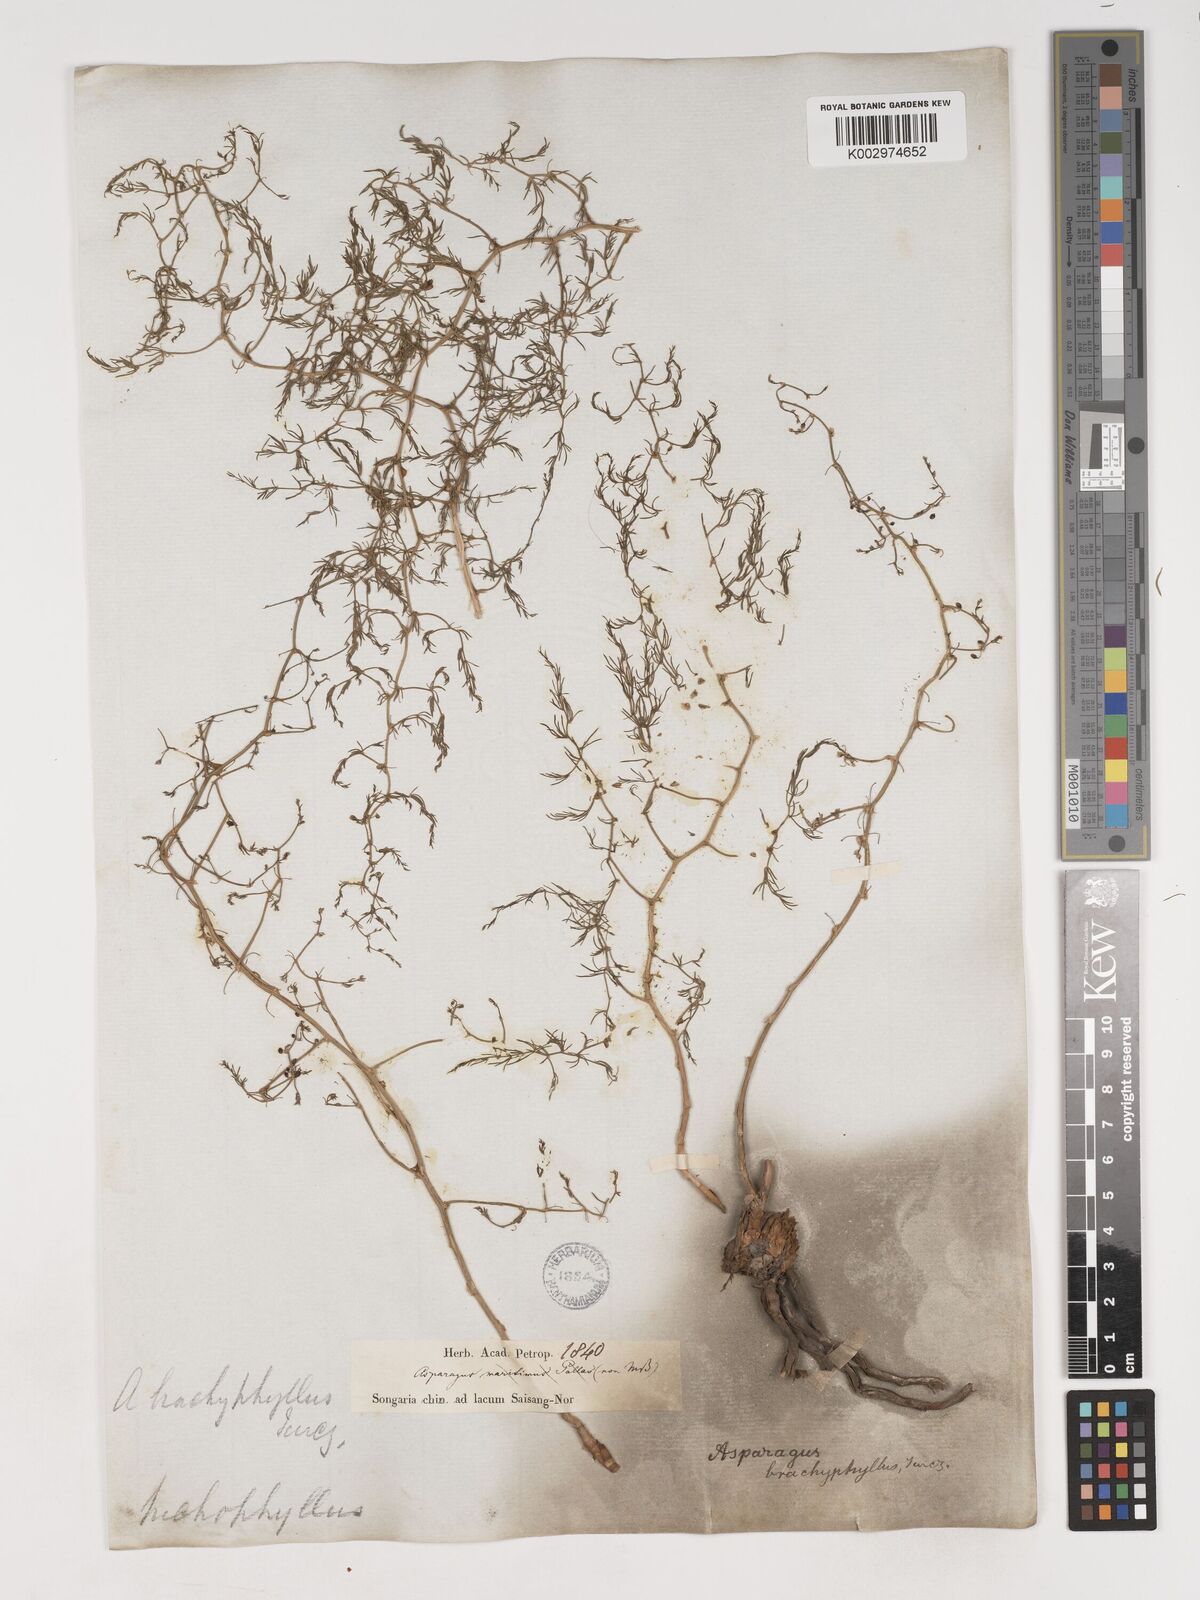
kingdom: Plantae
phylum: Tracheophyta
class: Liliopsida
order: Asparagales
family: Asparagaceae
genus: Asparagus
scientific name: Asparagus brachyphyllus
